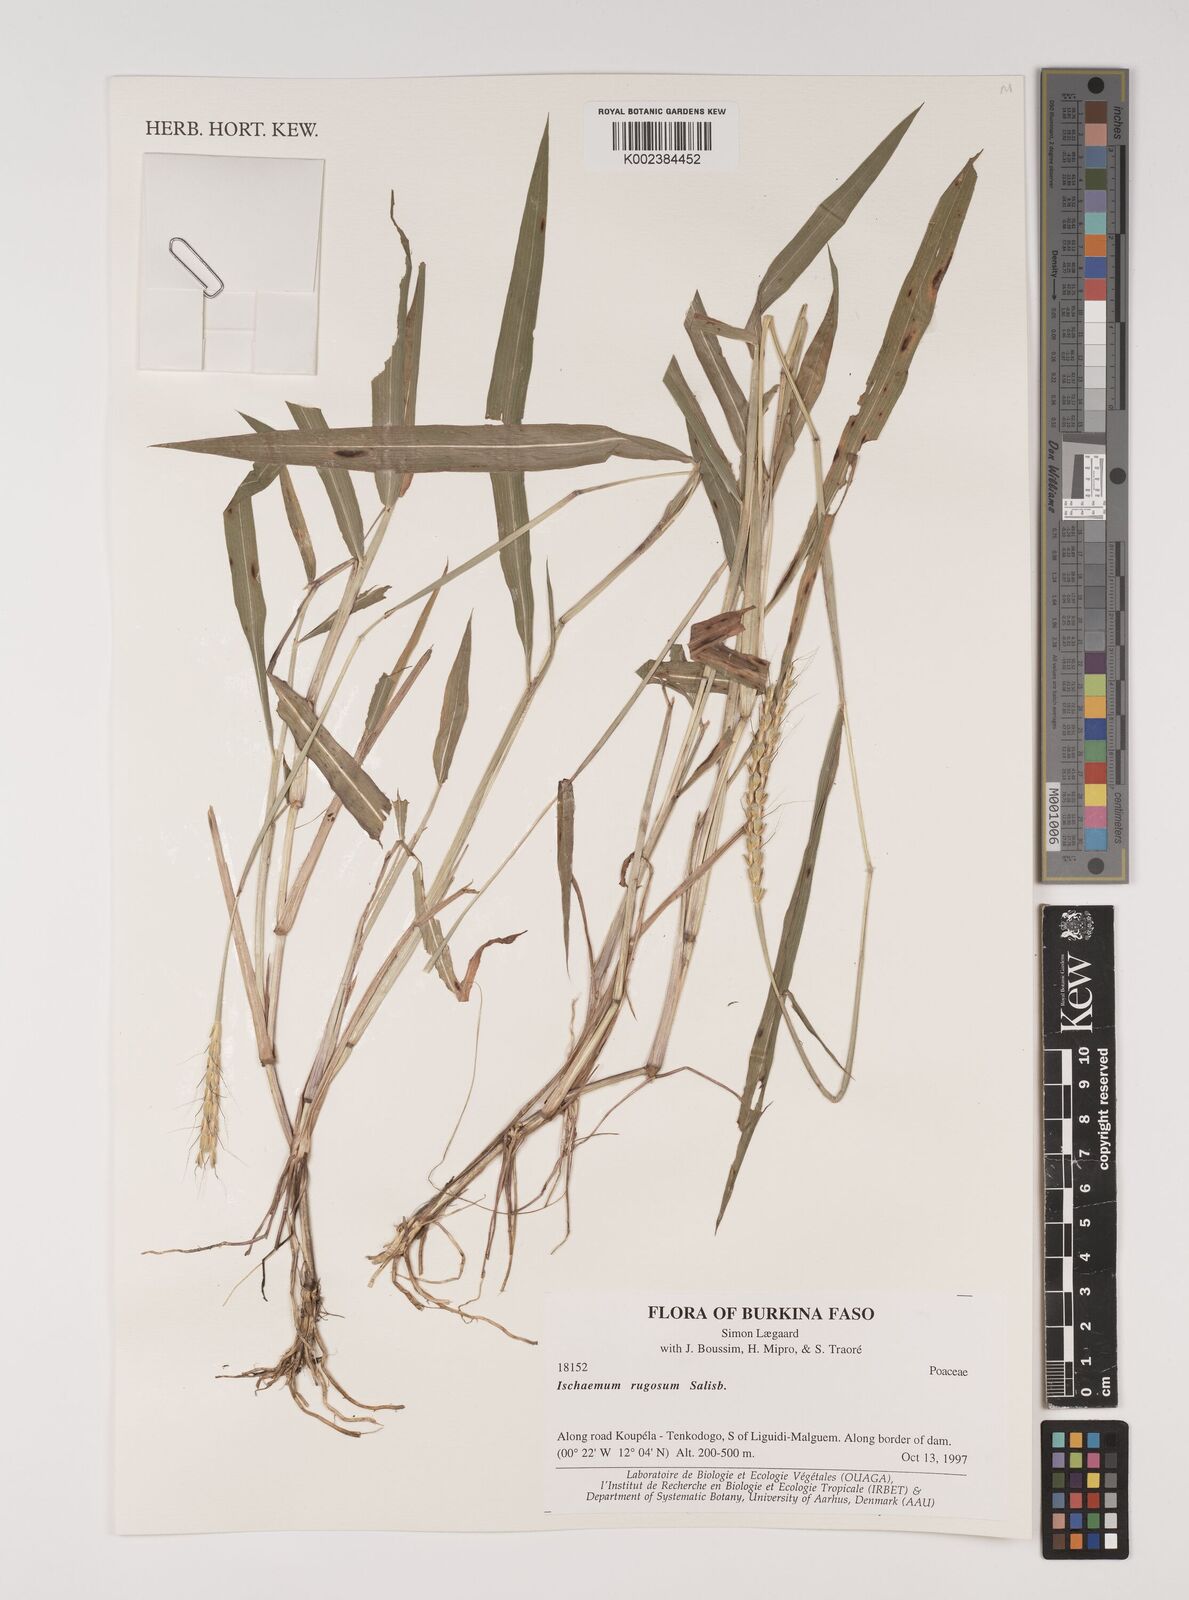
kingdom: Plantae
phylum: Tracheophyta
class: Liliopsida
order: Poales
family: Poaceae
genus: Ischaemum
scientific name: Ischaemum rugosum
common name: Saramatta grass
